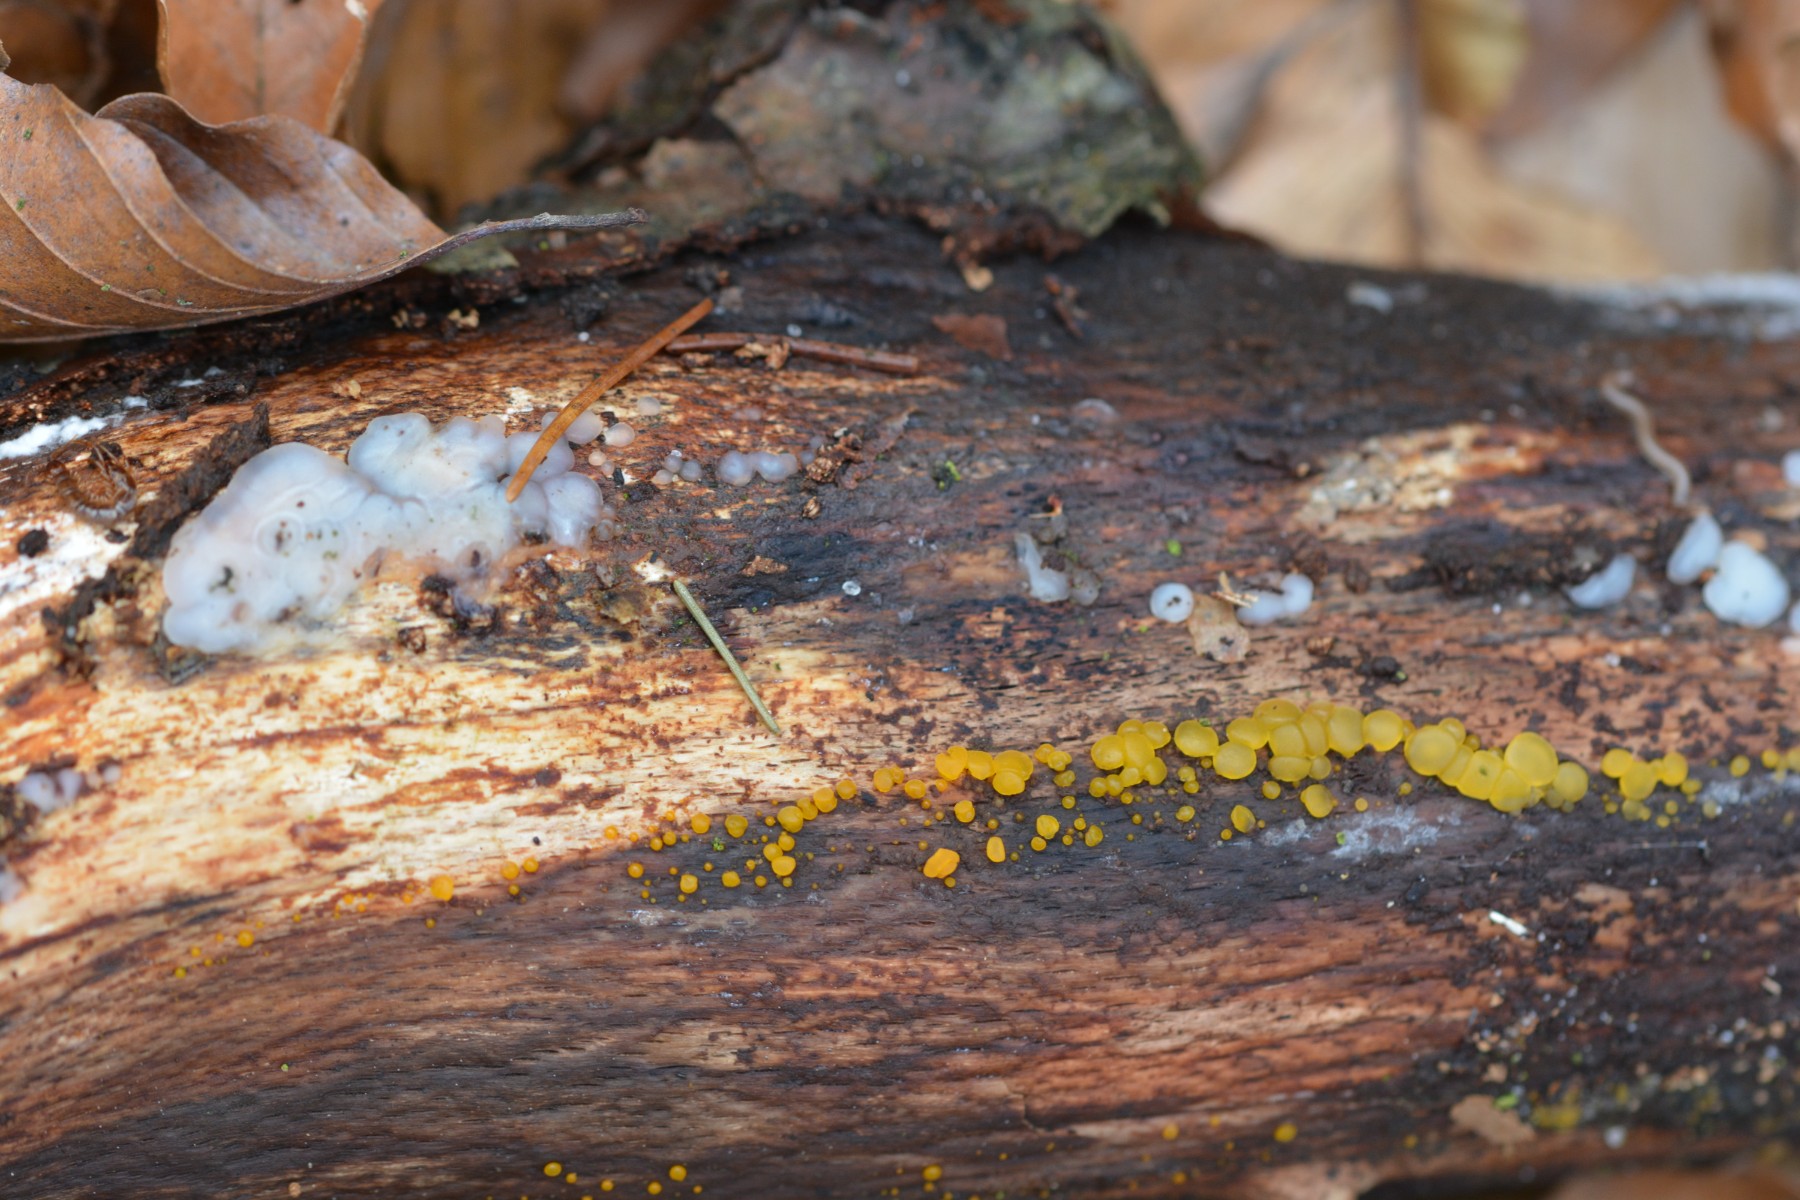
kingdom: Fungi
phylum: Basidiomycota
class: Dacrymycetes
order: Dacrymycetales
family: Dacrymycetaceae
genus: Dacrymyces
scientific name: Dacrymyces stillatus
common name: almindelig tåresvamp
